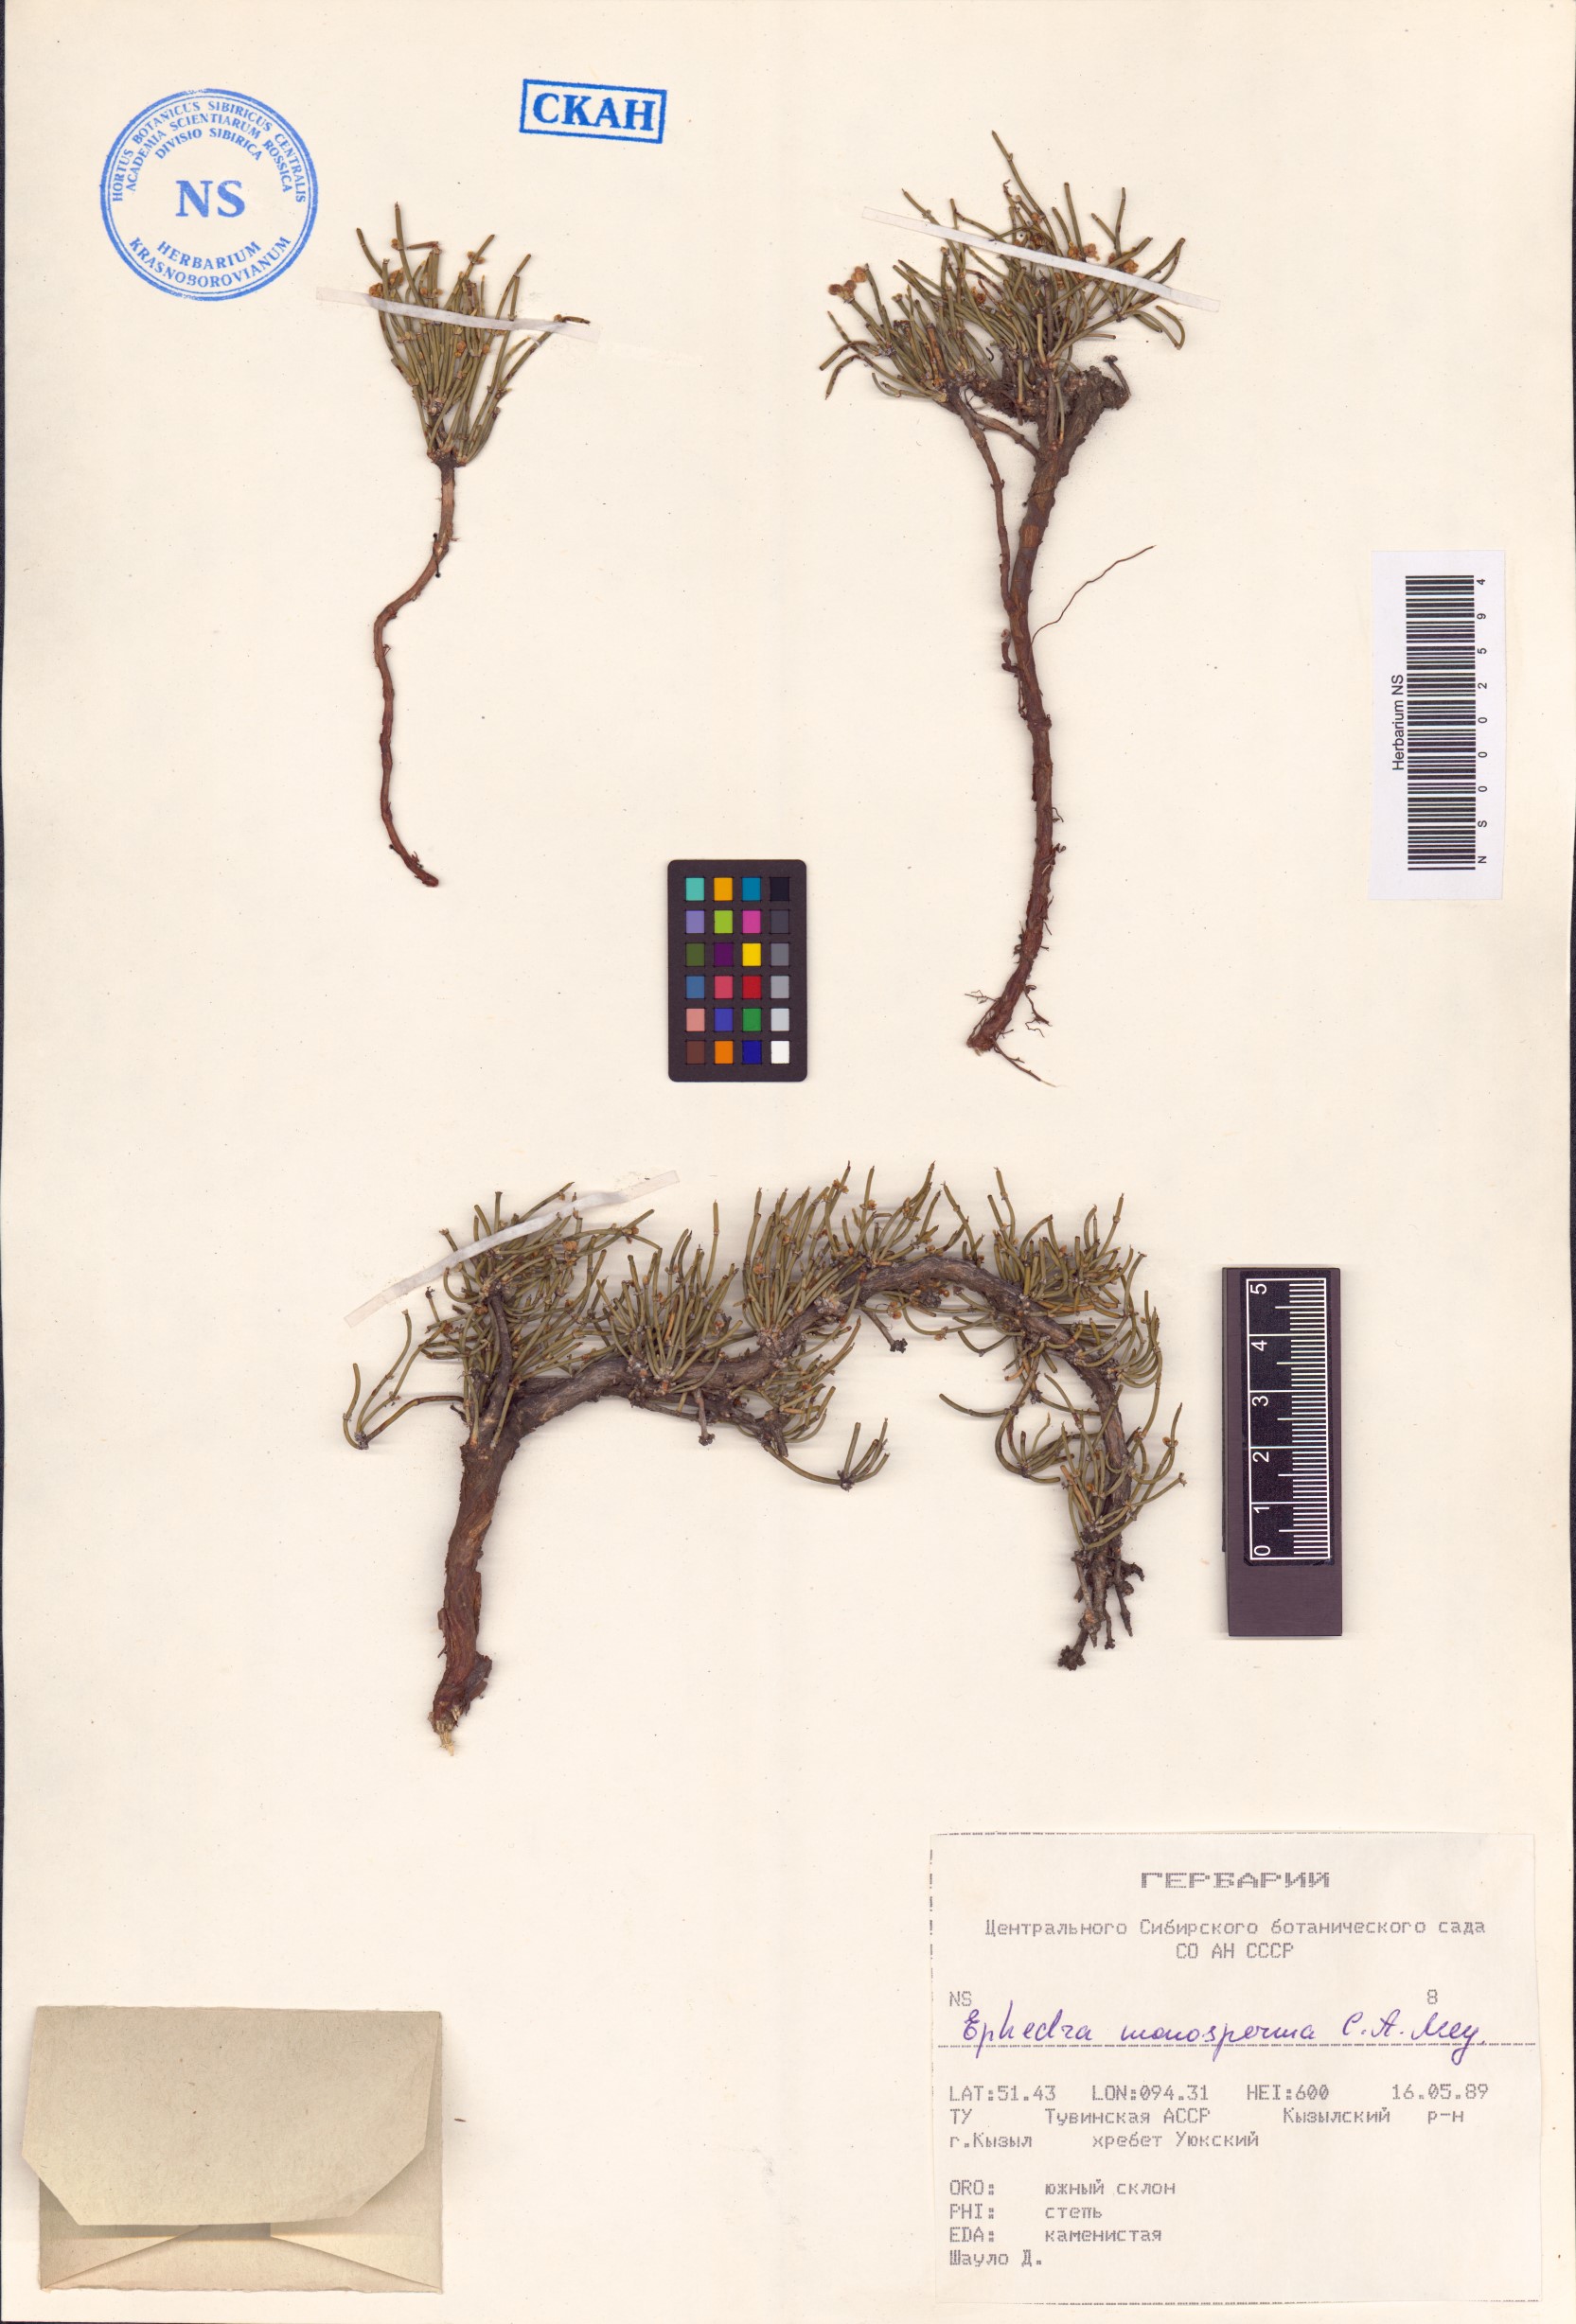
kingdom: Plantae
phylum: Tracheophyta
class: Gnetopsida
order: Ephedrales
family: Ephedraceae
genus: Ephedra
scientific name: Ephedra monosperma
